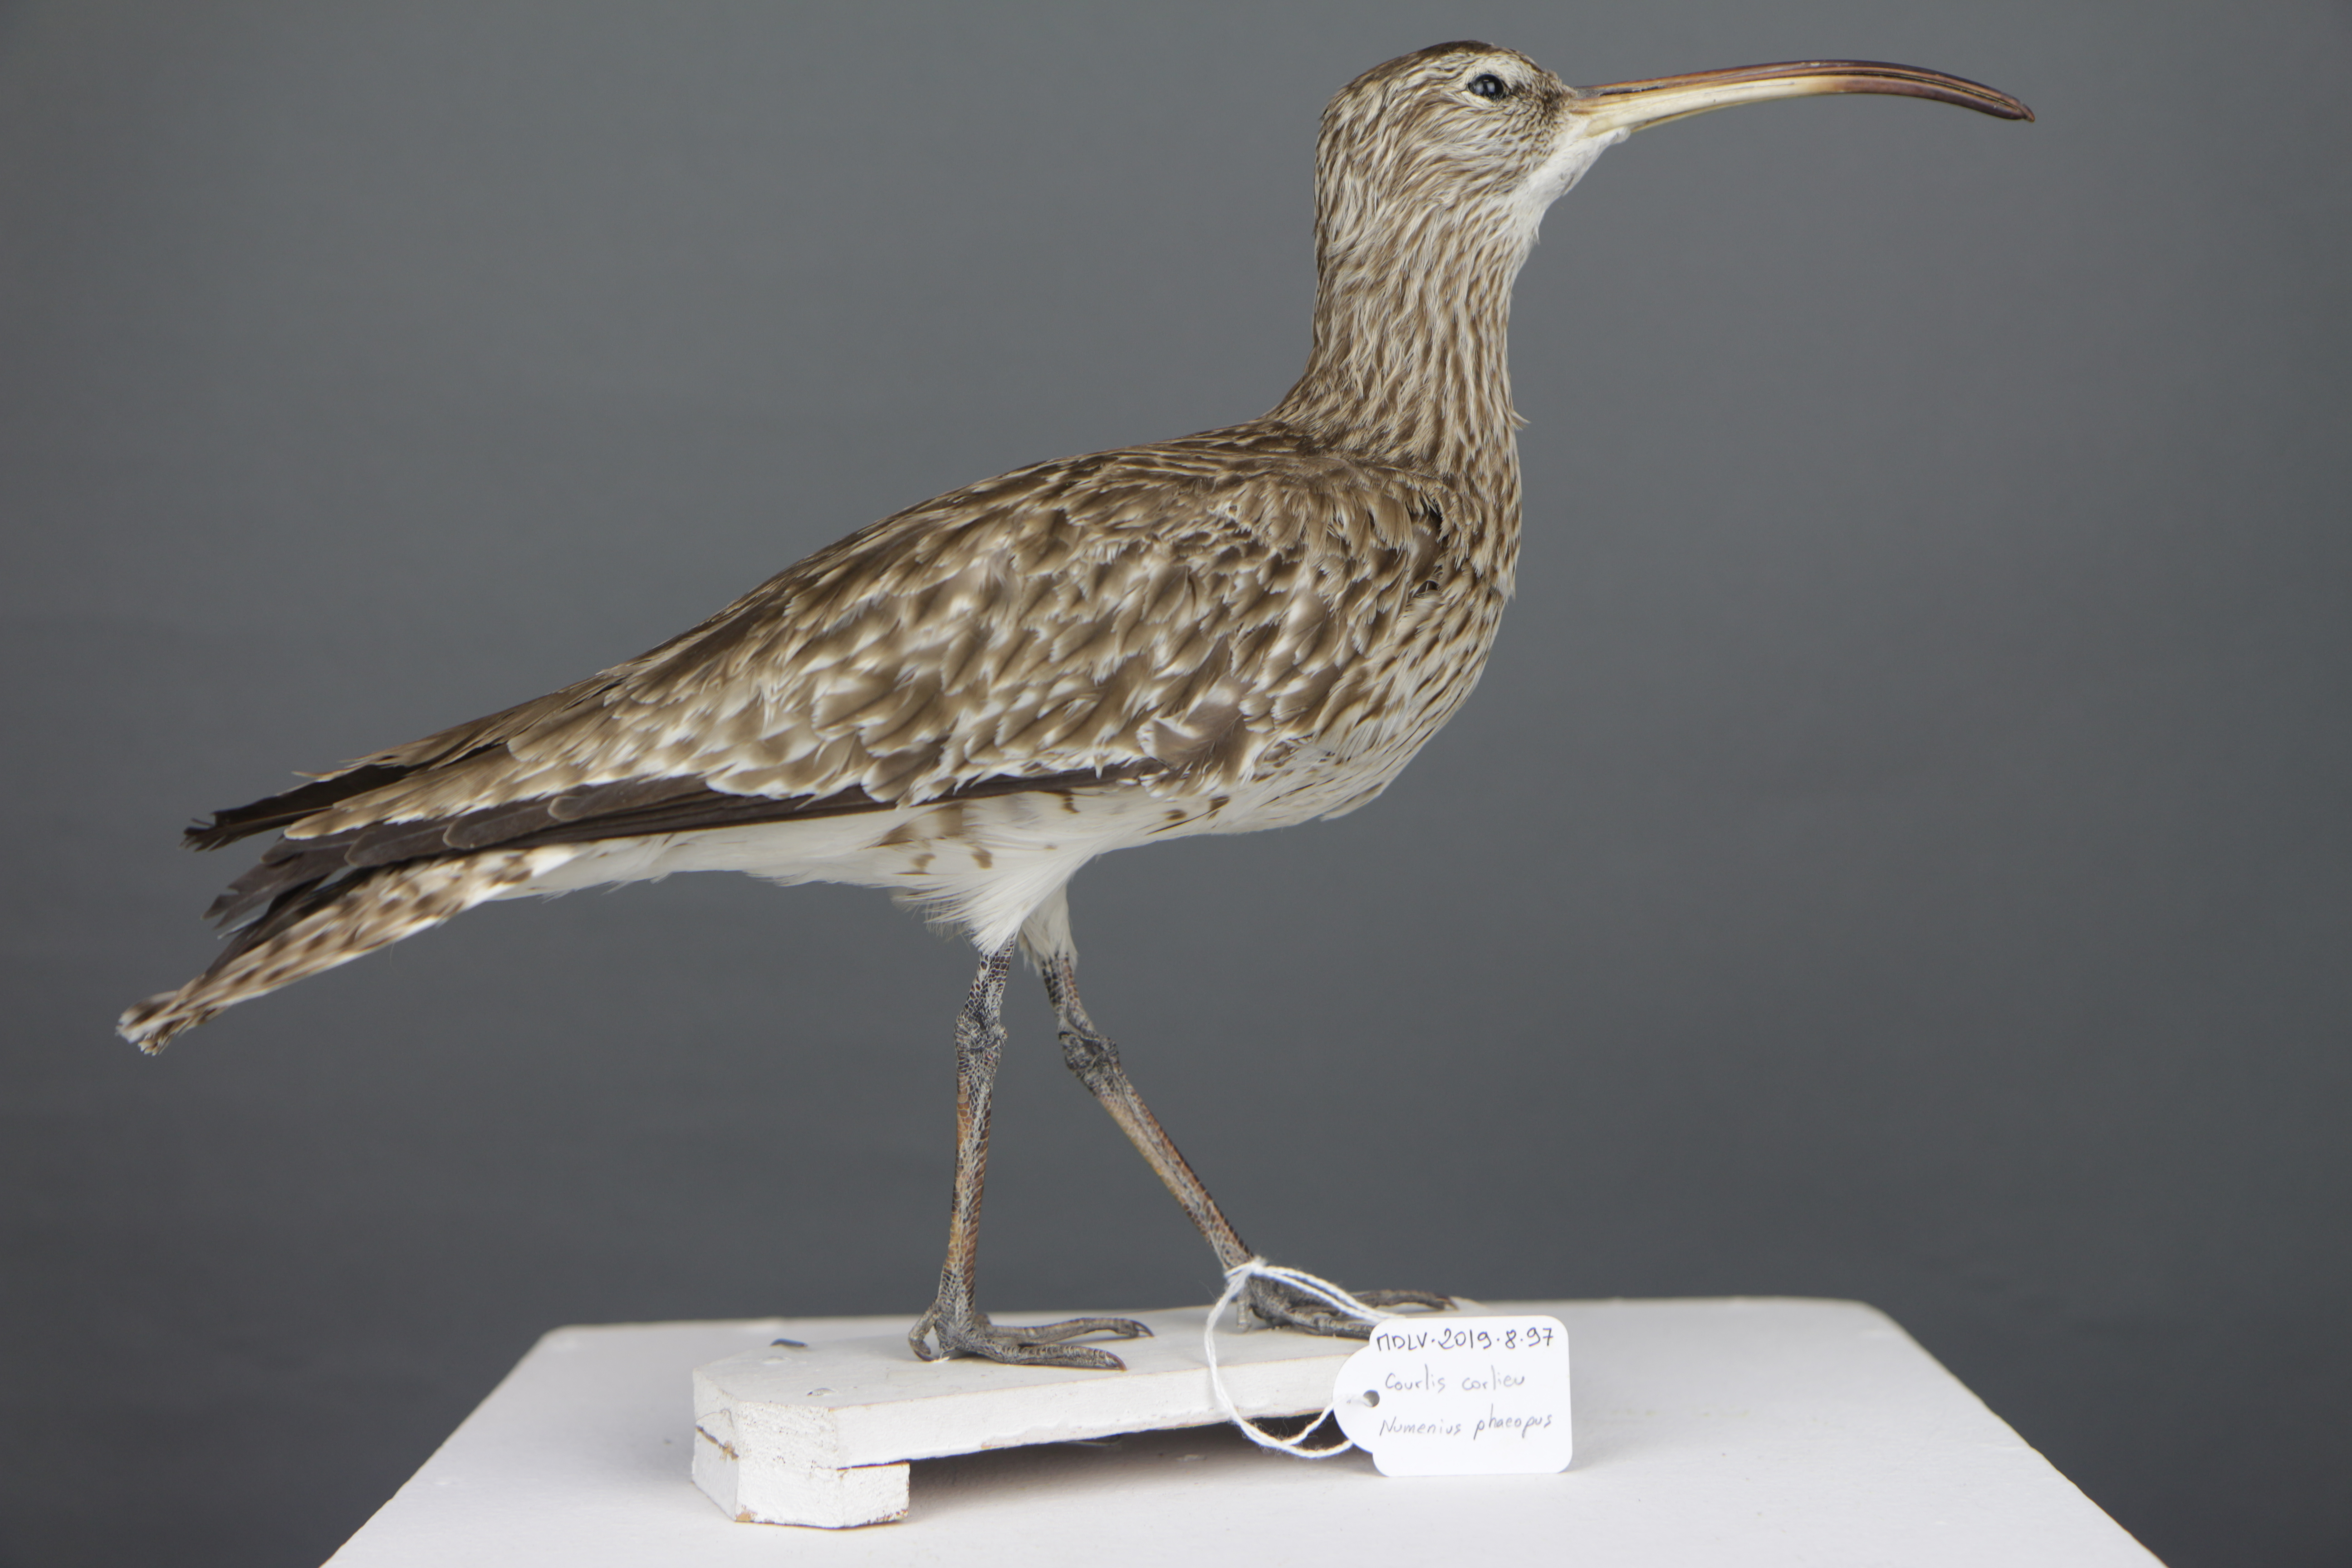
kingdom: Animalia
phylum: Chordata
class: Aves
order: Charadriiformes
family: Scolopacidae
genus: Numenius
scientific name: Numenius phaeopus
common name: Whimbrel
